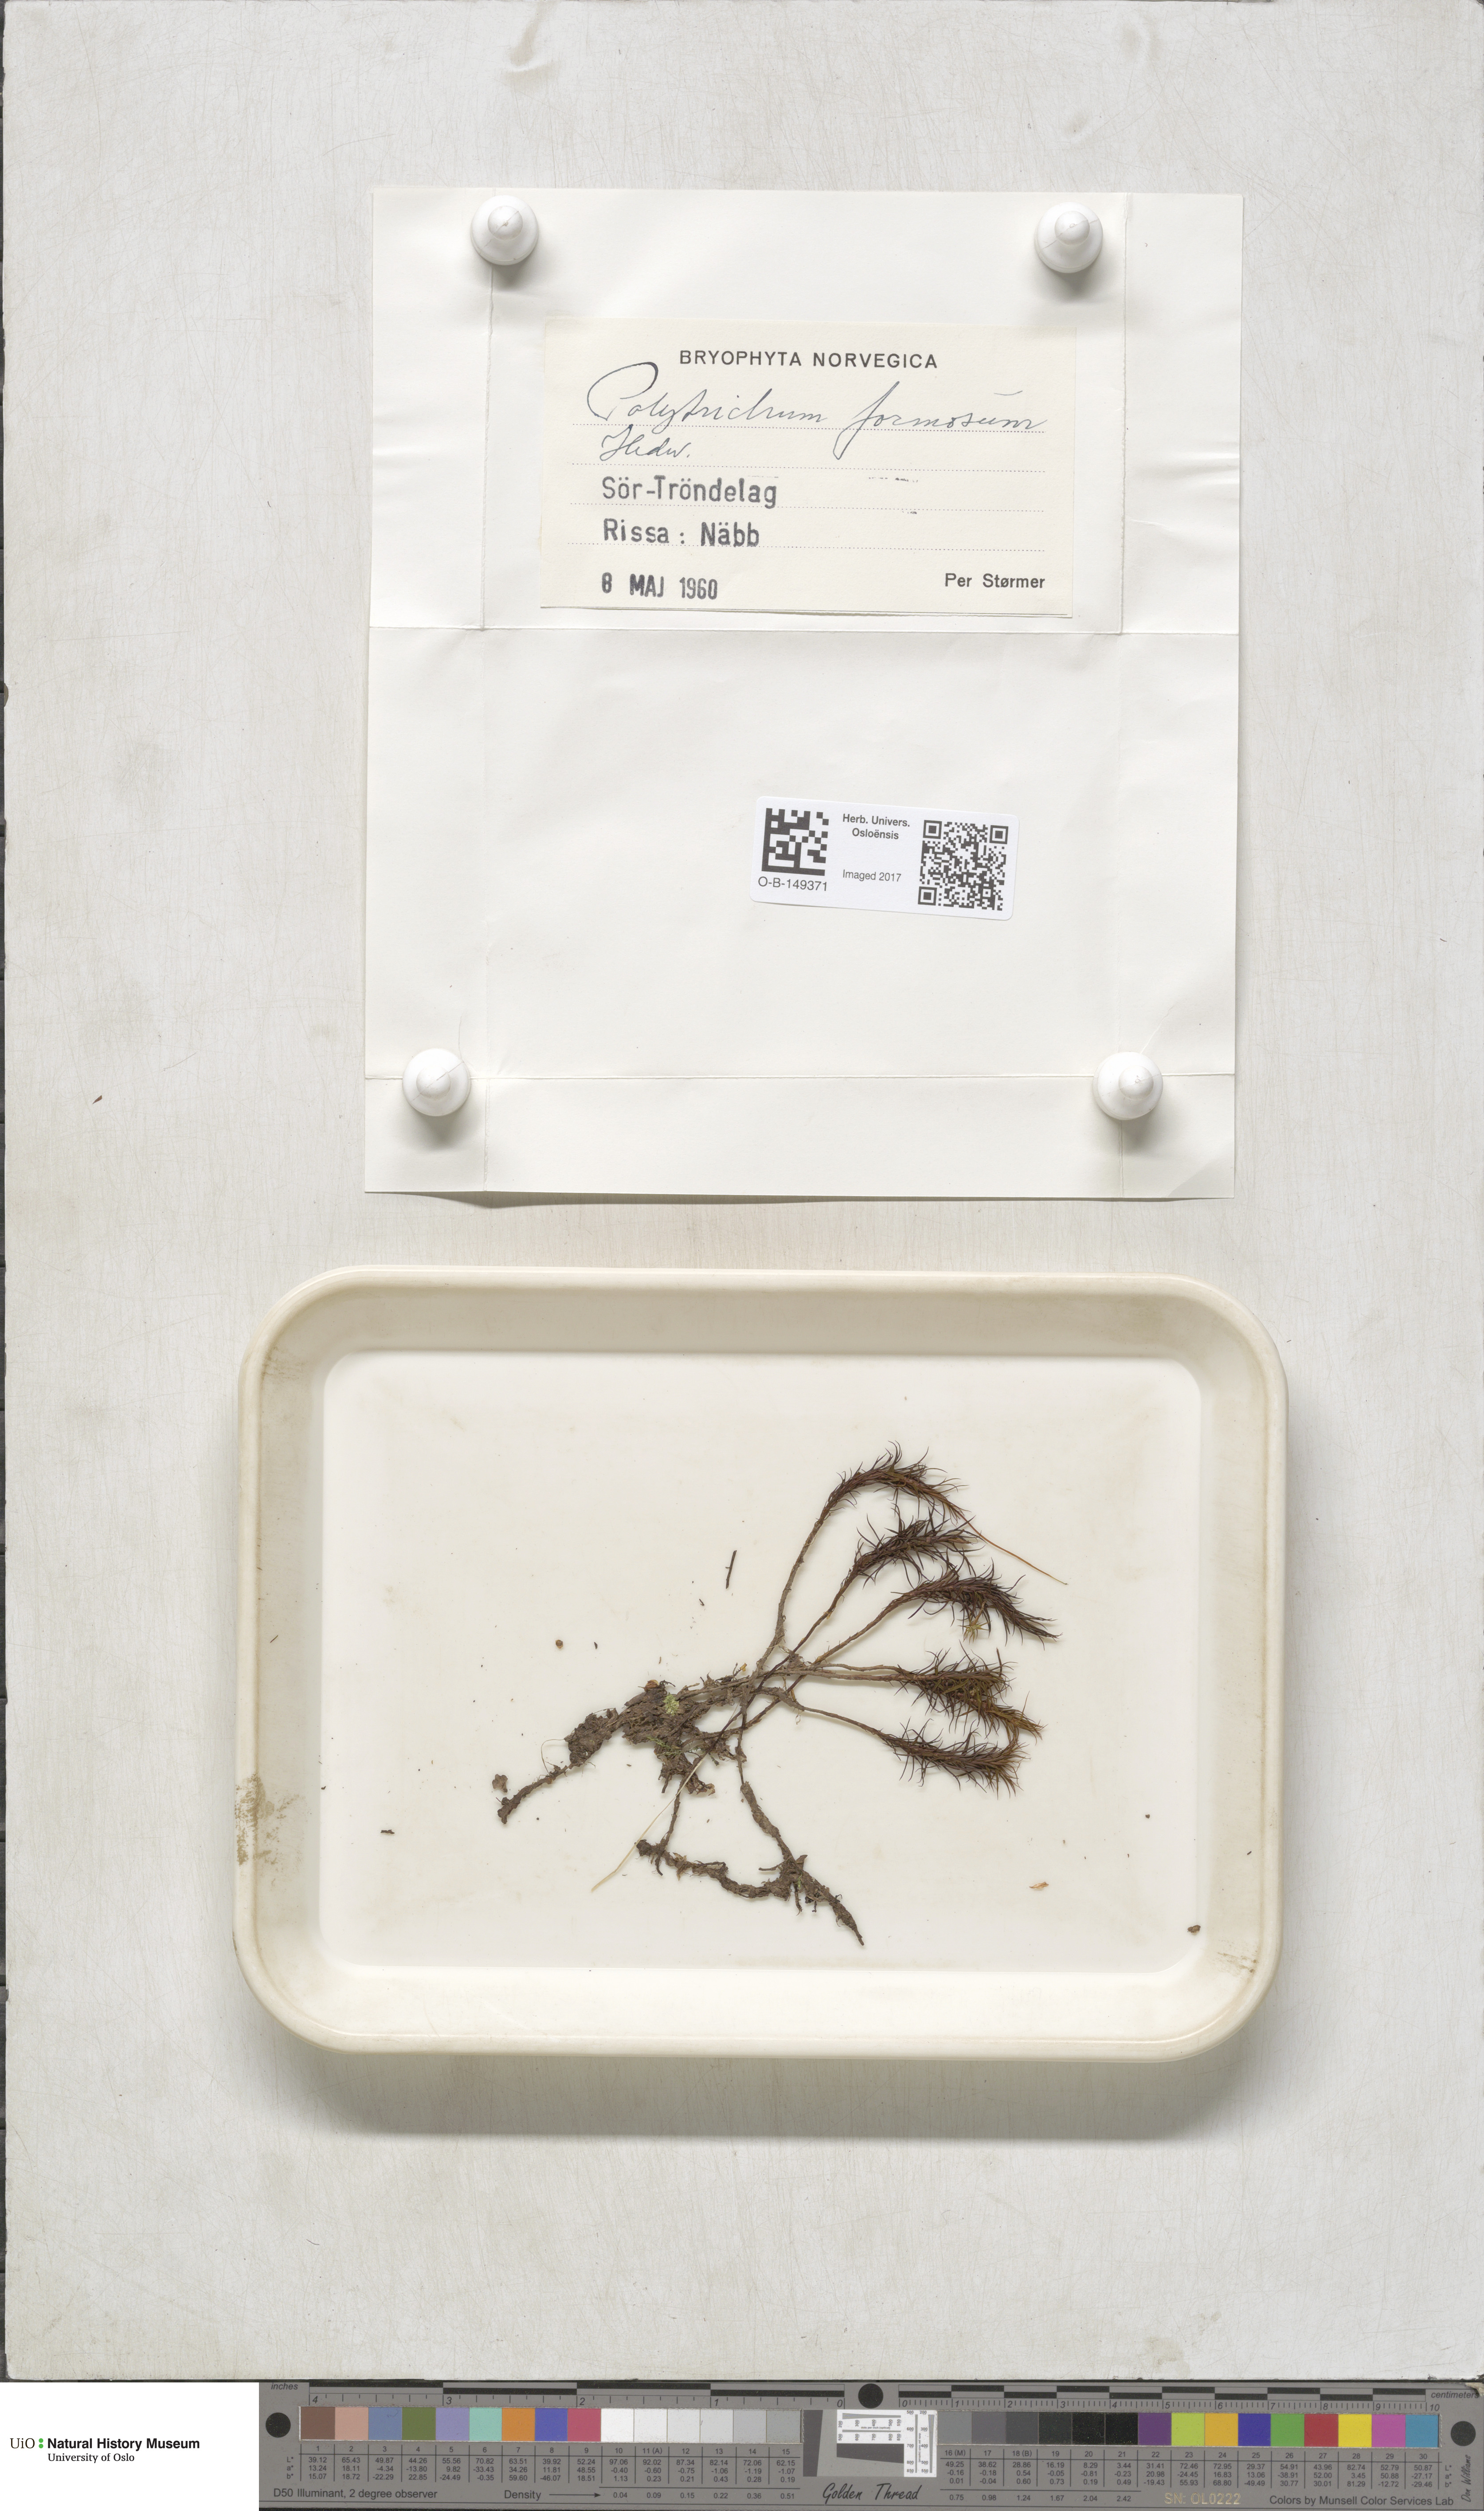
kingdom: Plantae
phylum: Bryophyta
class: Polytrichopsida
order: Polytrichales
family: Polytrichaceae
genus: Polytrichum
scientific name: Polytrichum formosum
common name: Bank haircap moss
